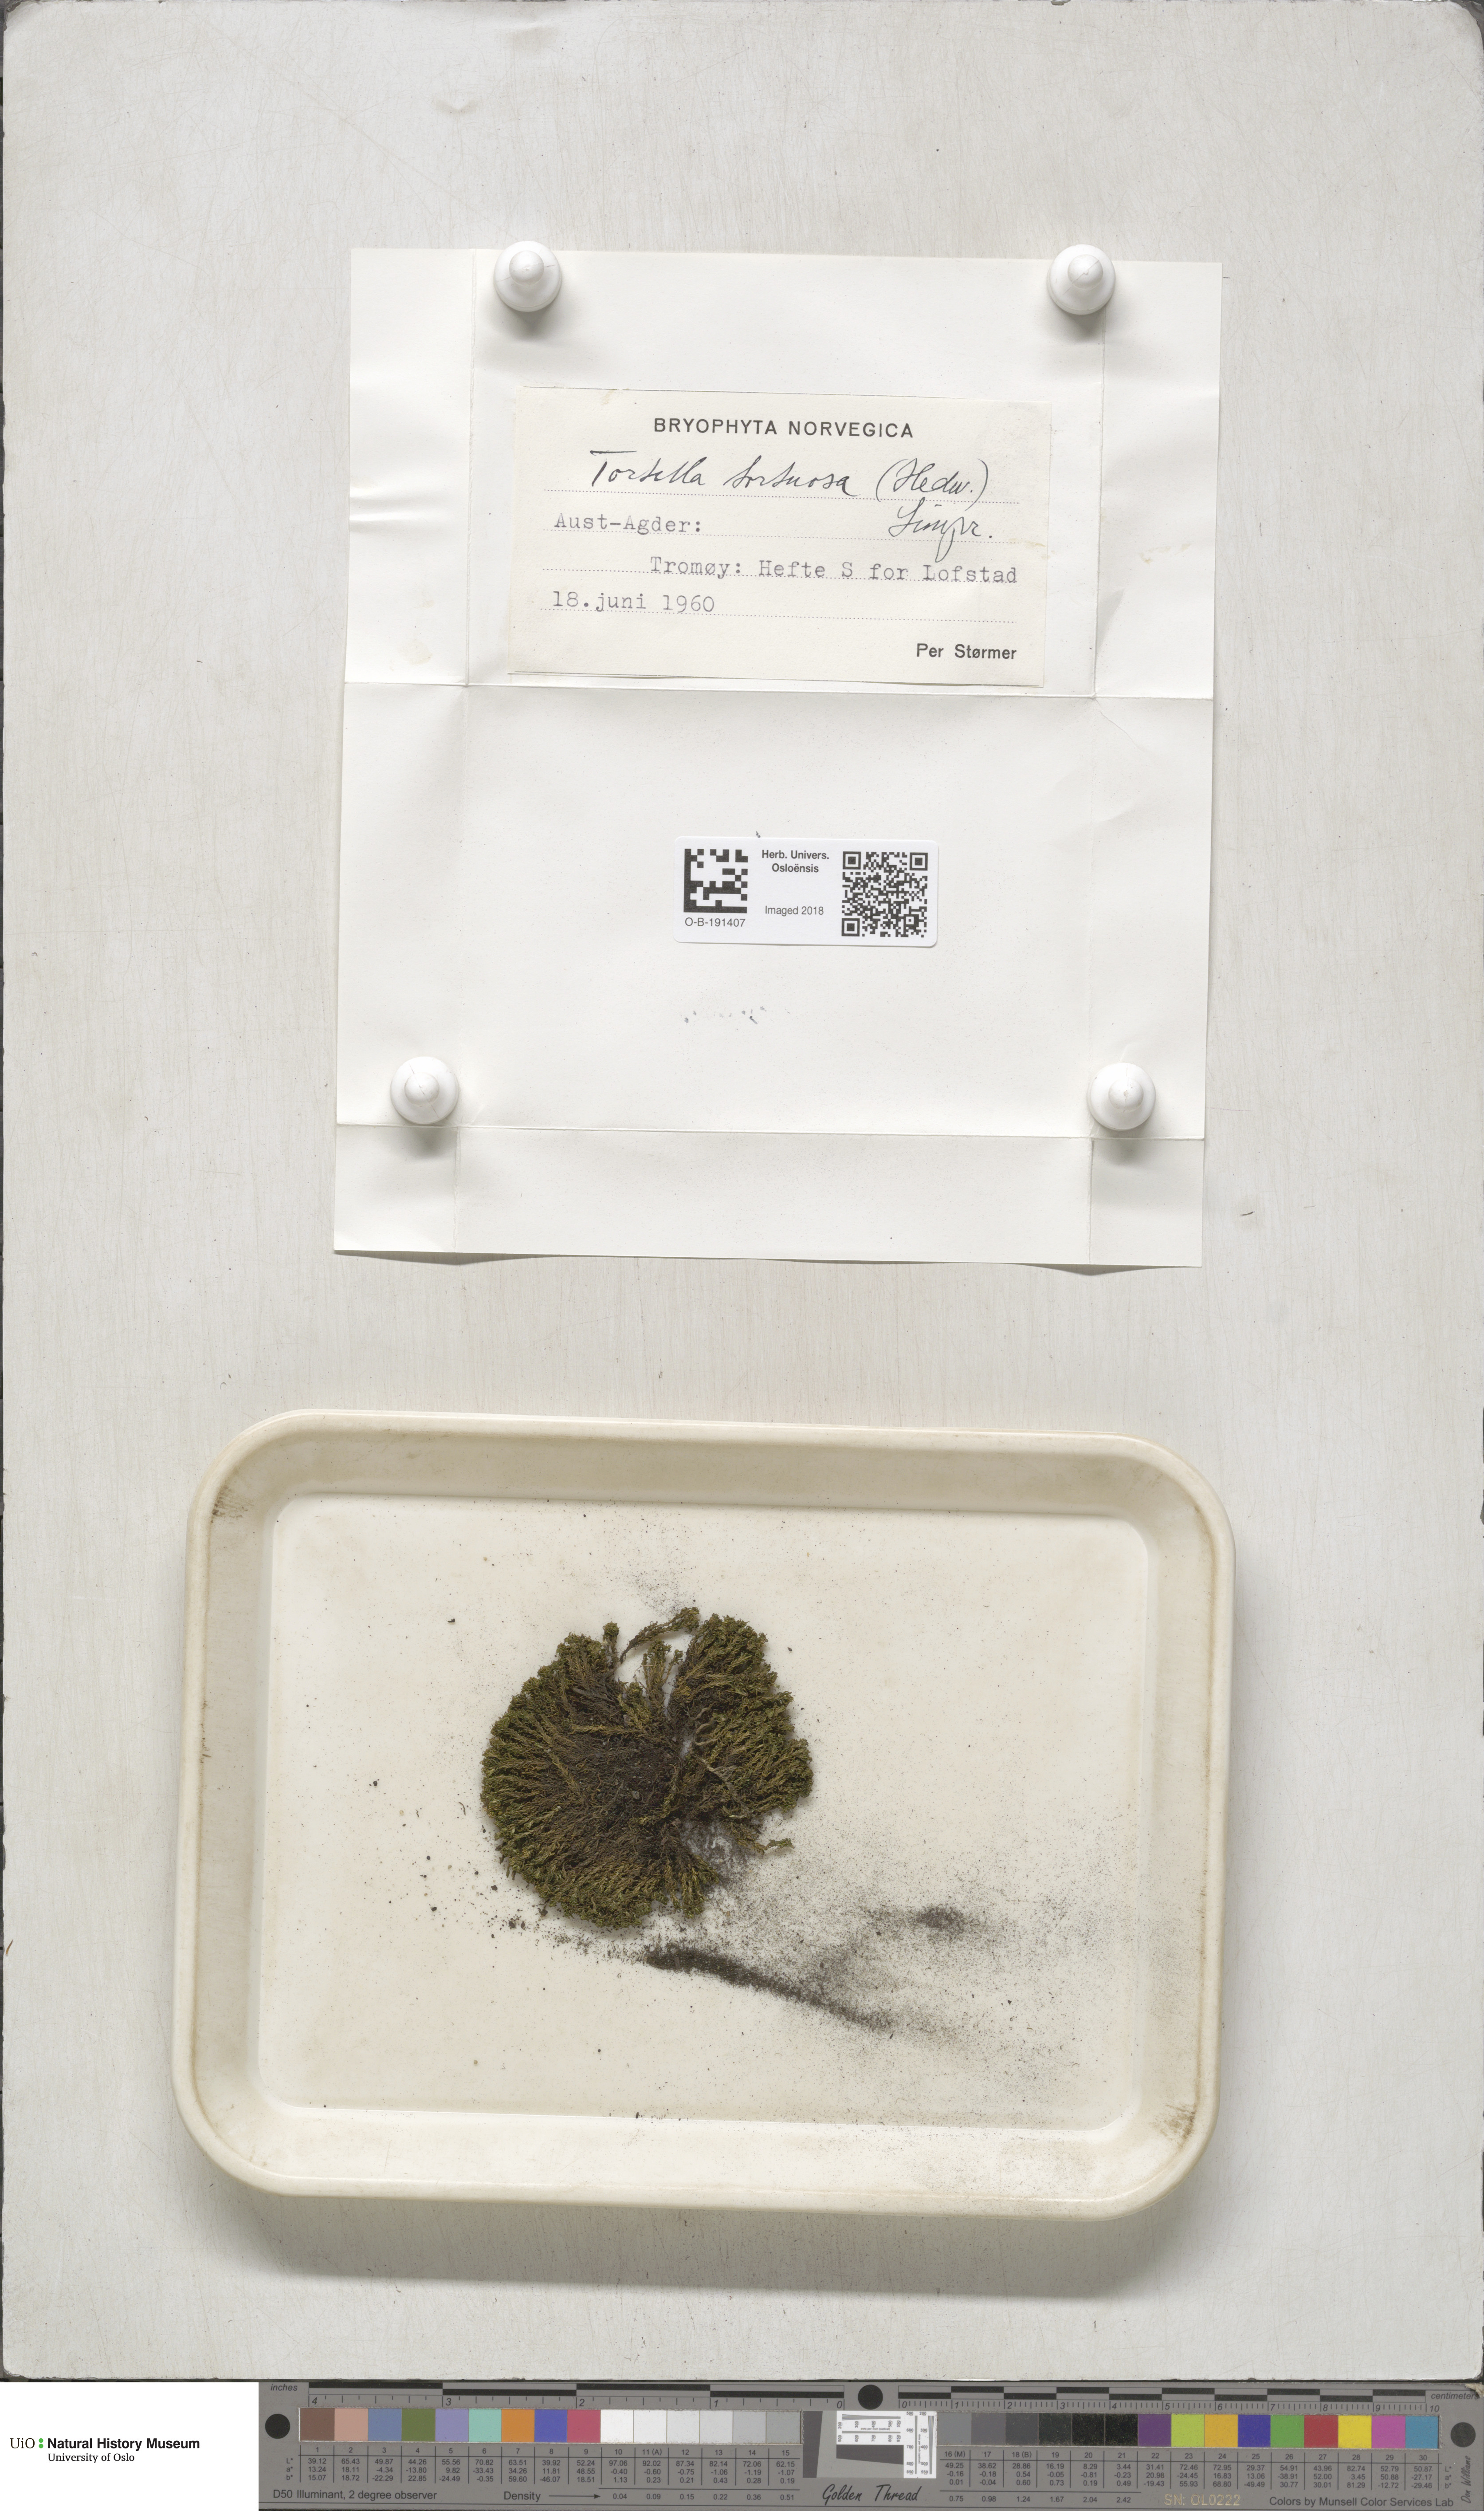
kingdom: Plantae
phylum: Bryophyta
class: Bryopsida
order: Pottiales
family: Pottiaceae
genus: Tortella
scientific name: Tortella tortuosa
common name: Frizzled crisp moss
